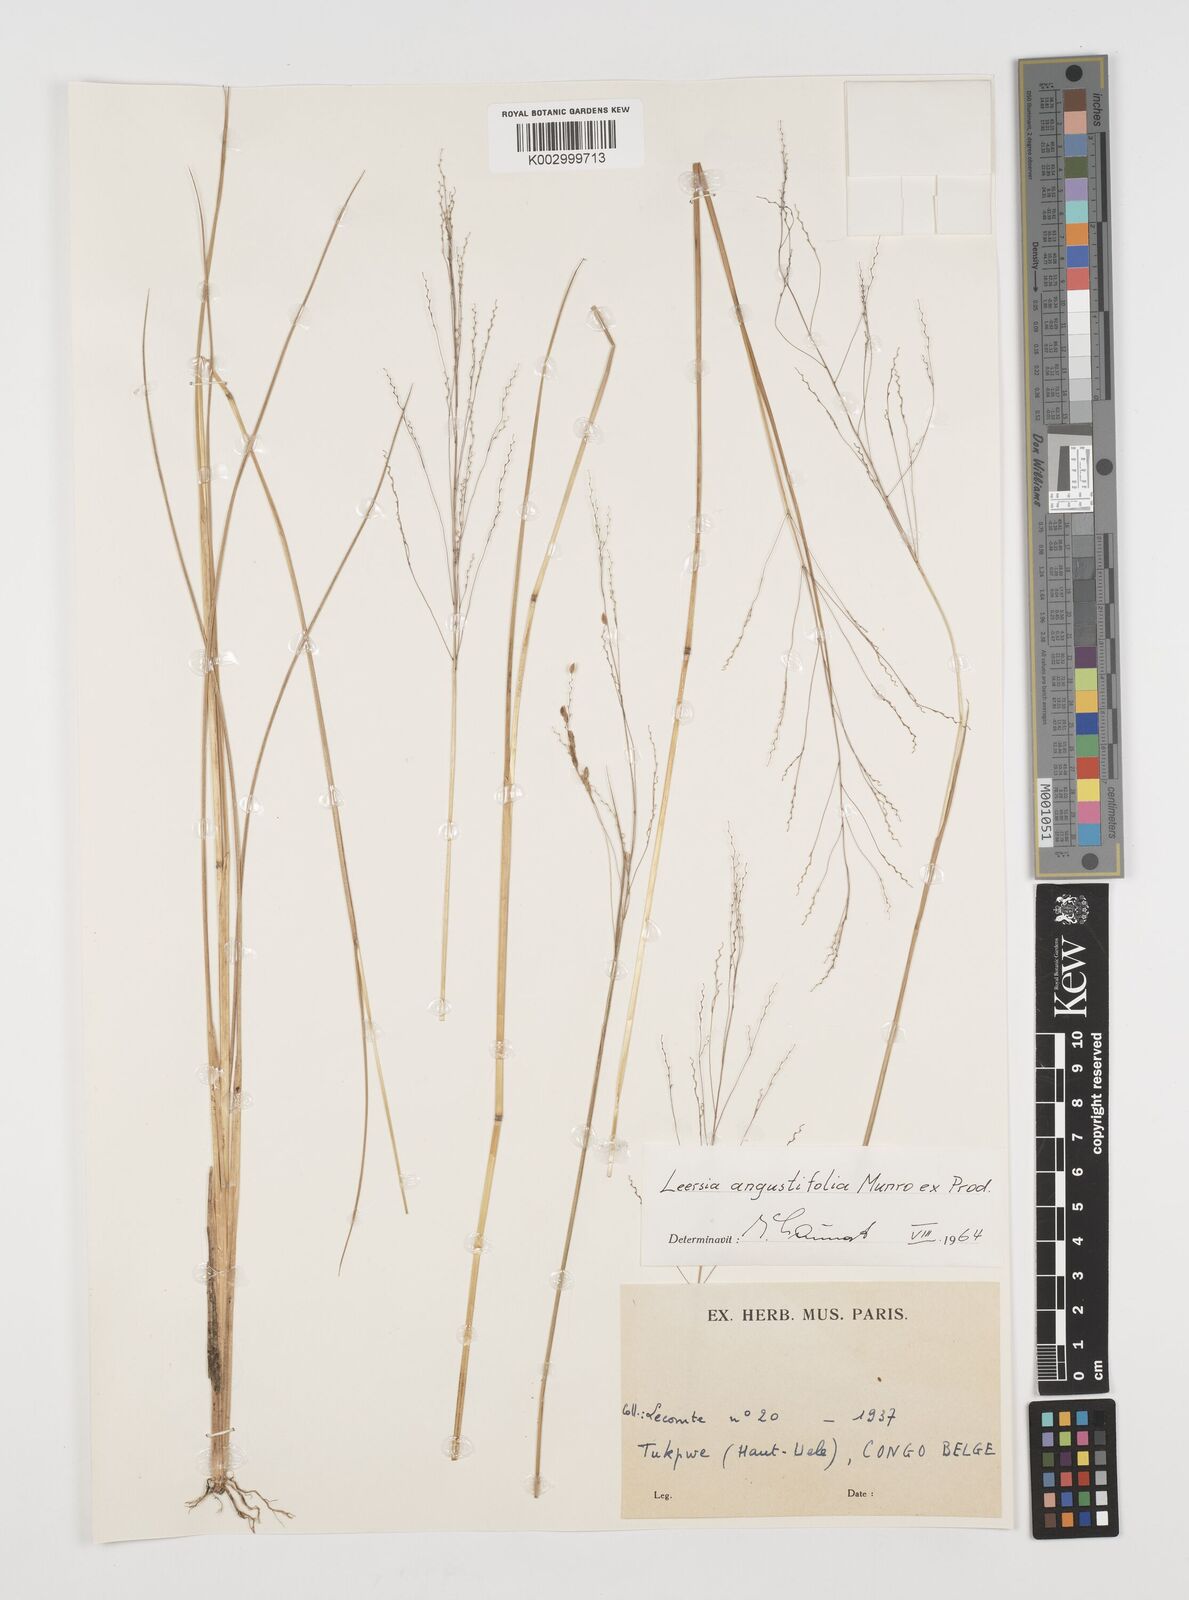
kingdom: Plantae
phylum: Tracheophyta
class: Liliopsida
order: Poales
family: Poaceae
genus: Leersia
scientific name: Leersia angustifolia
